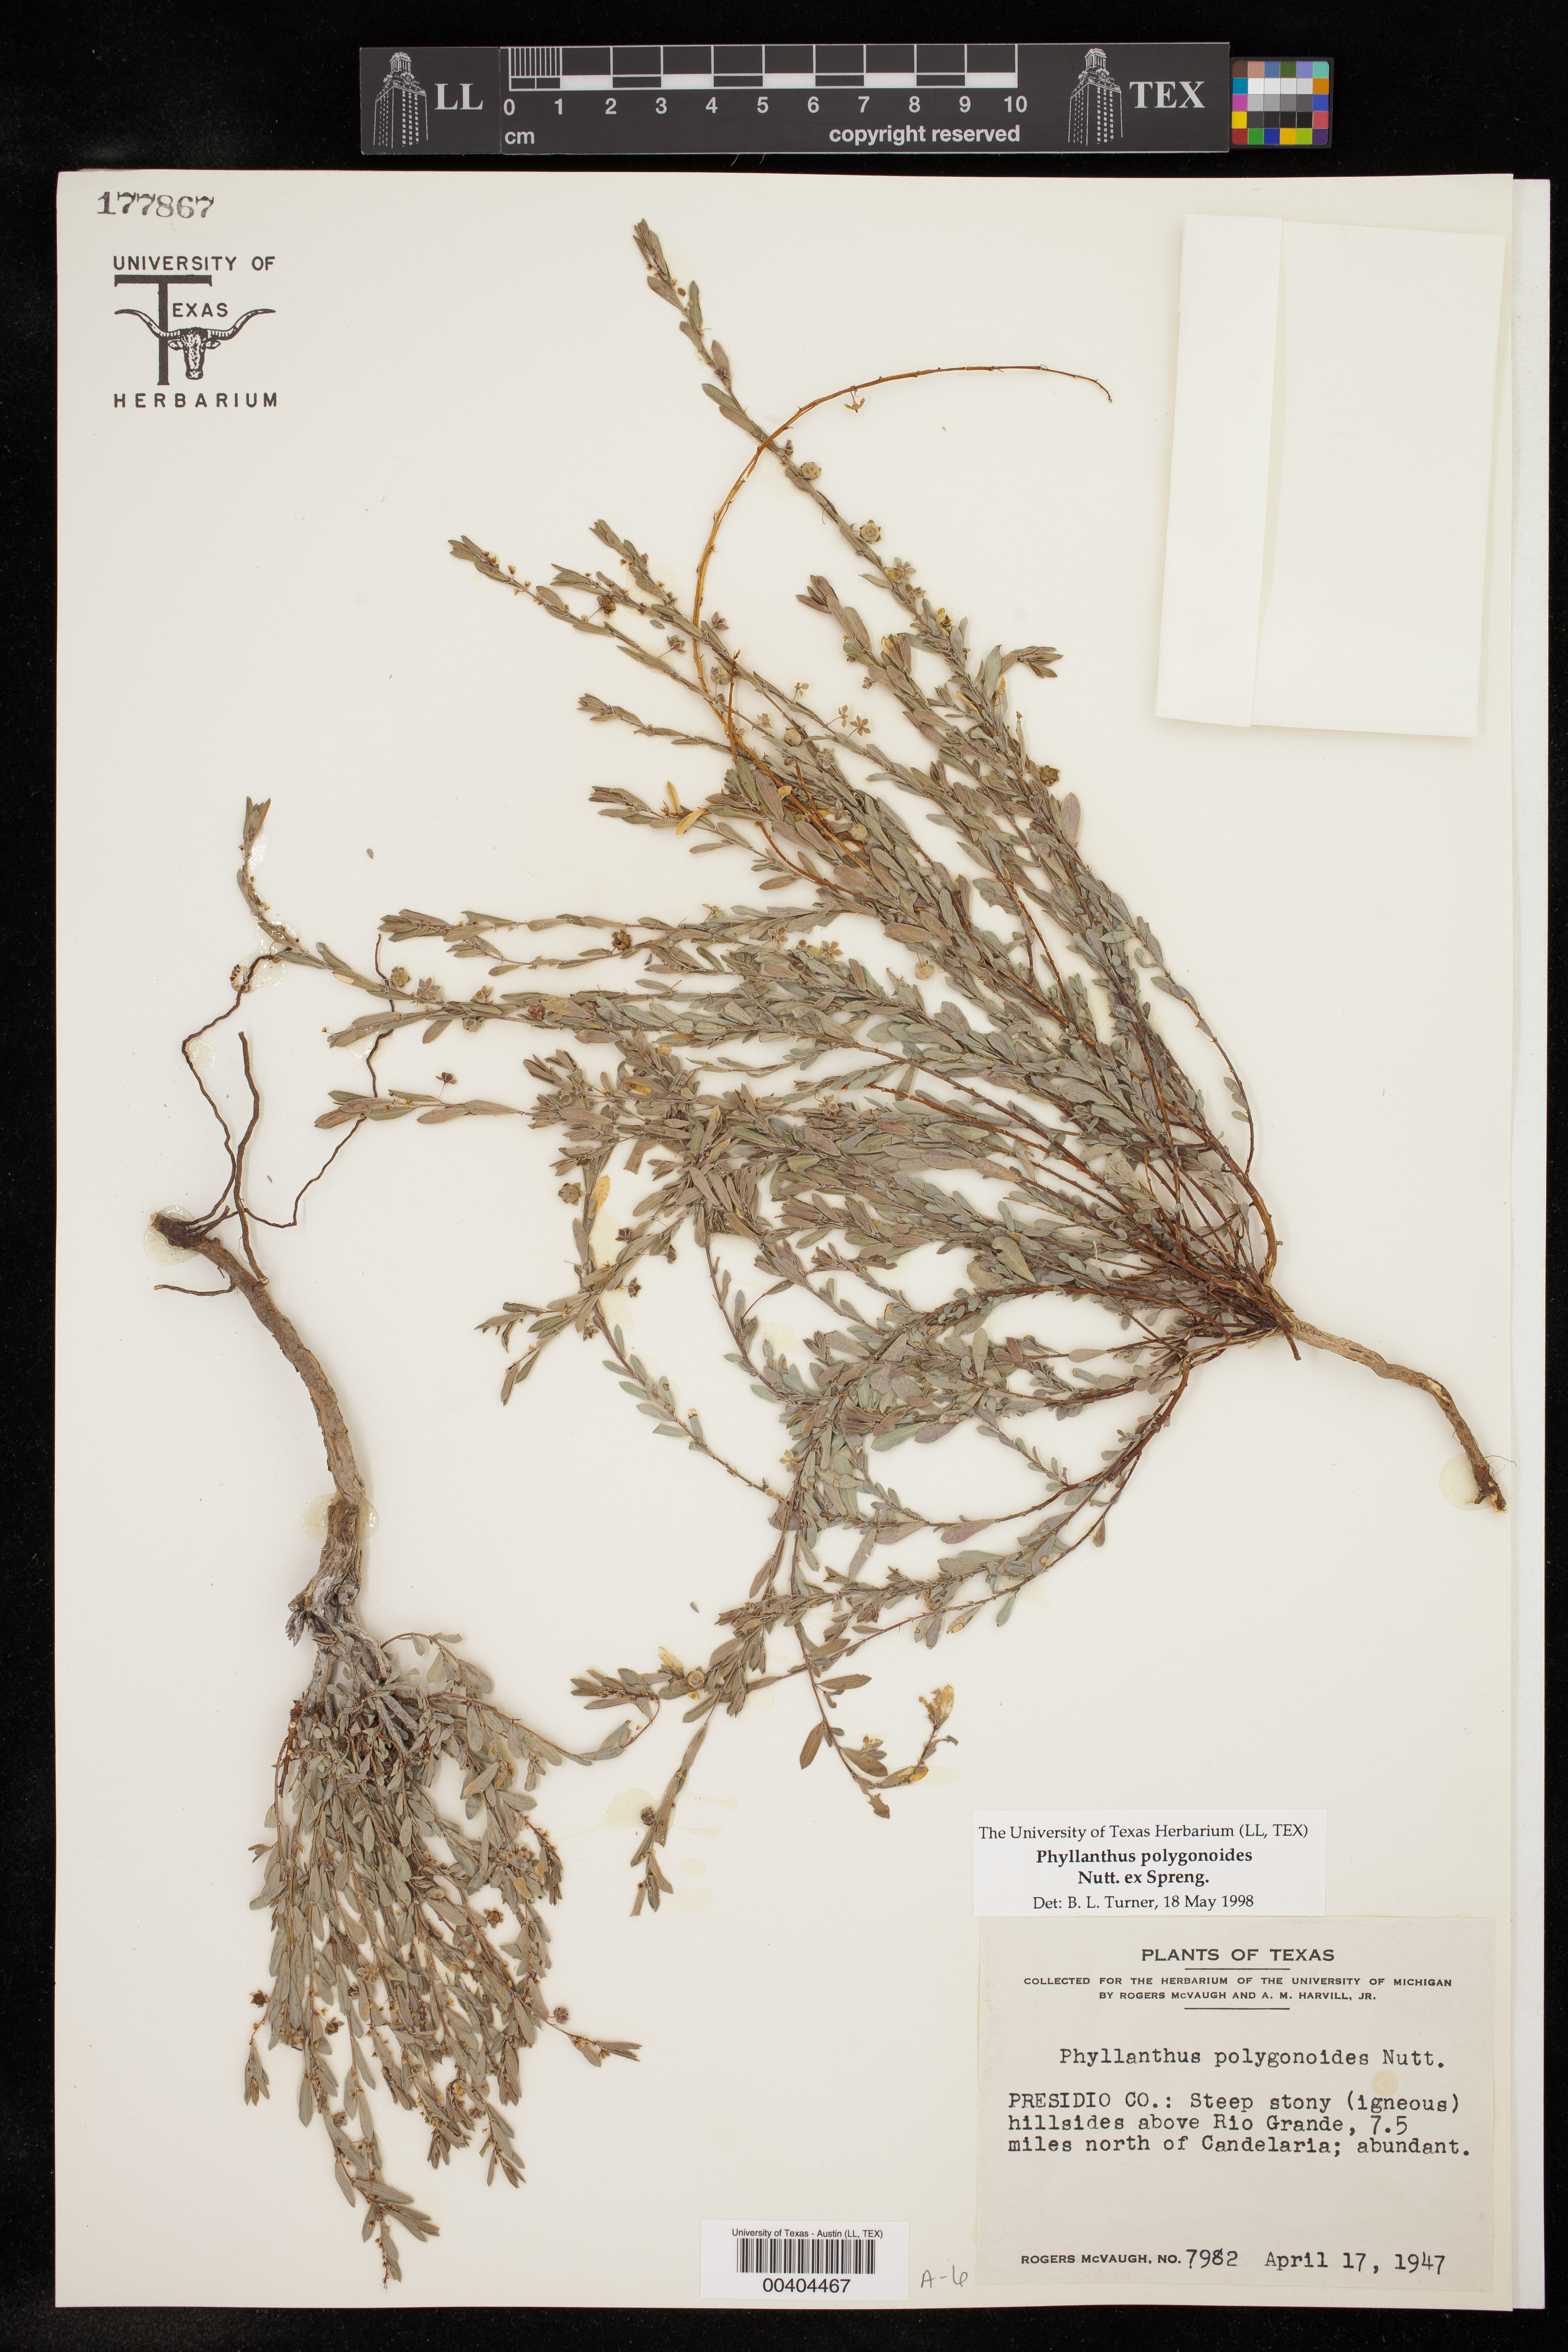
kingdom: Plantae
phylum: Tracheophyta
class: Magnoliopsida
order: Malpighiales
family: Phyllanthaceae
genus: Phyllanthus
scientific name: Phyllanthus polygonoides
